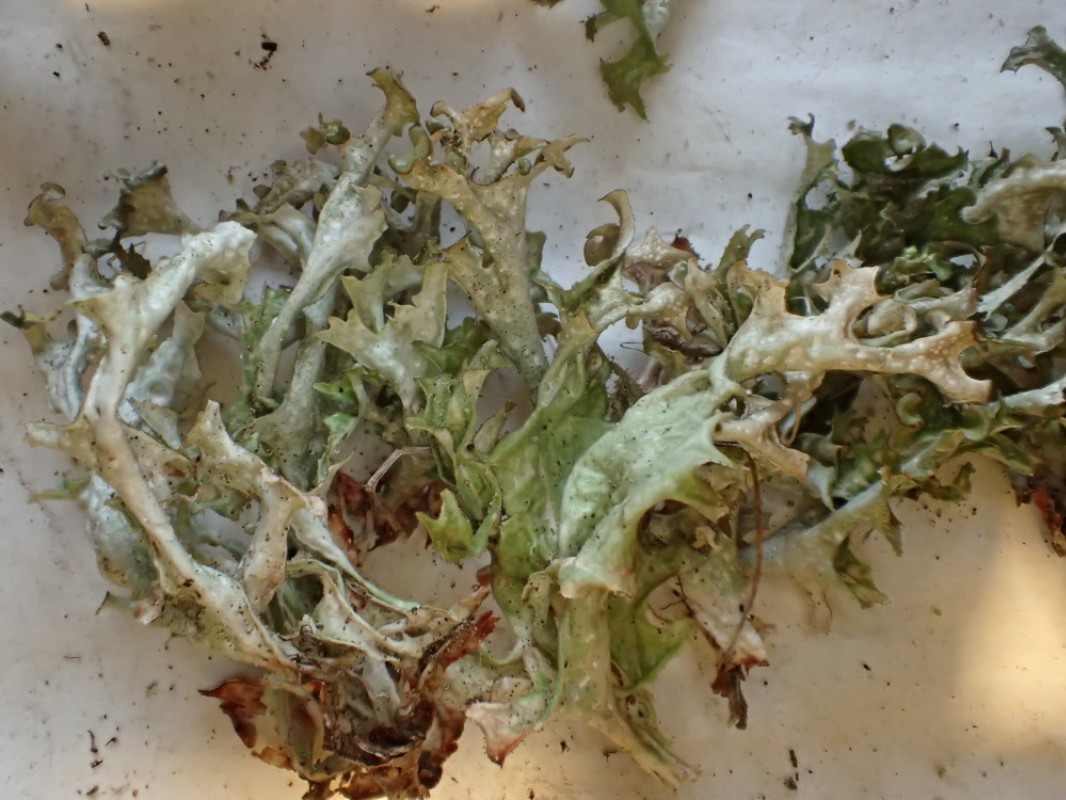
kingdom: Fungi
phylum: Ascomycota
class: Lecanoromycetes
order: Lecanorales
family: Parmeliaceae
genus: Cetraria
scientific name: Cetraria islandica
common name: islandsk kruslav
